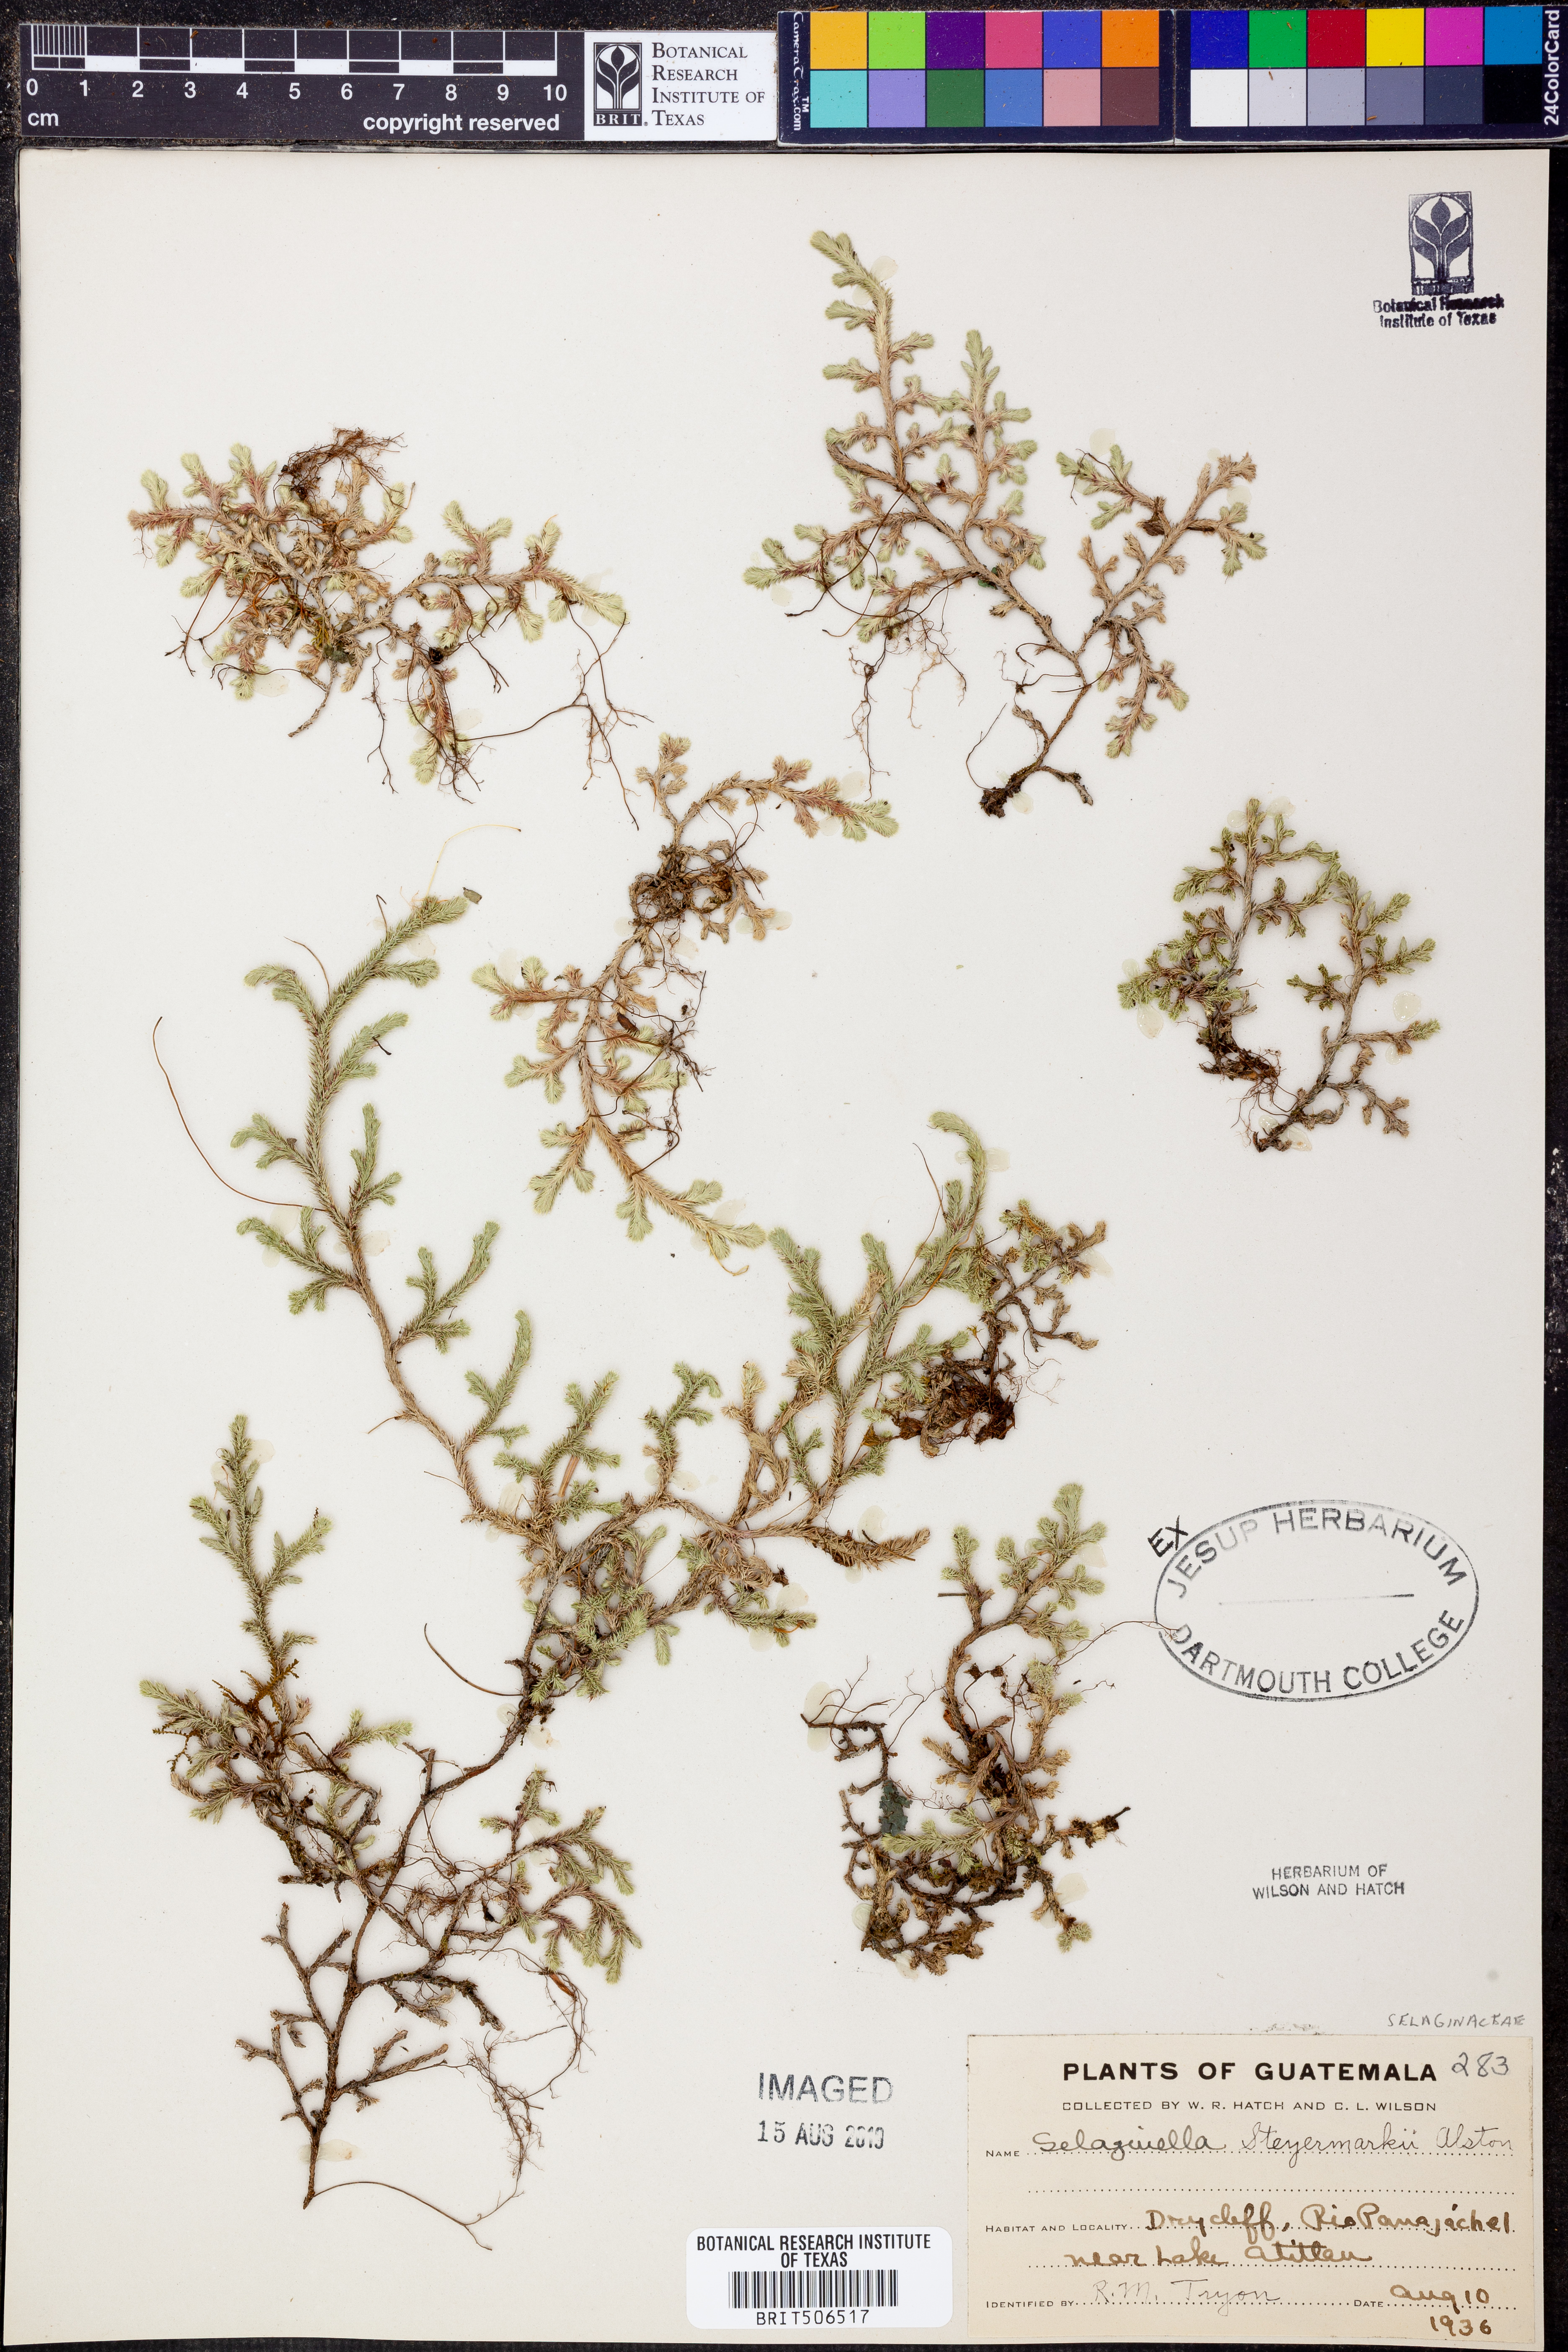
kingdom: Plantae
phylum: Tracheophyta
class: Lycopodiopsida
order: Selaginellales
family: Selaginellaceae
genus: Selaginella
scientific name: Selaginella steyermarkii
